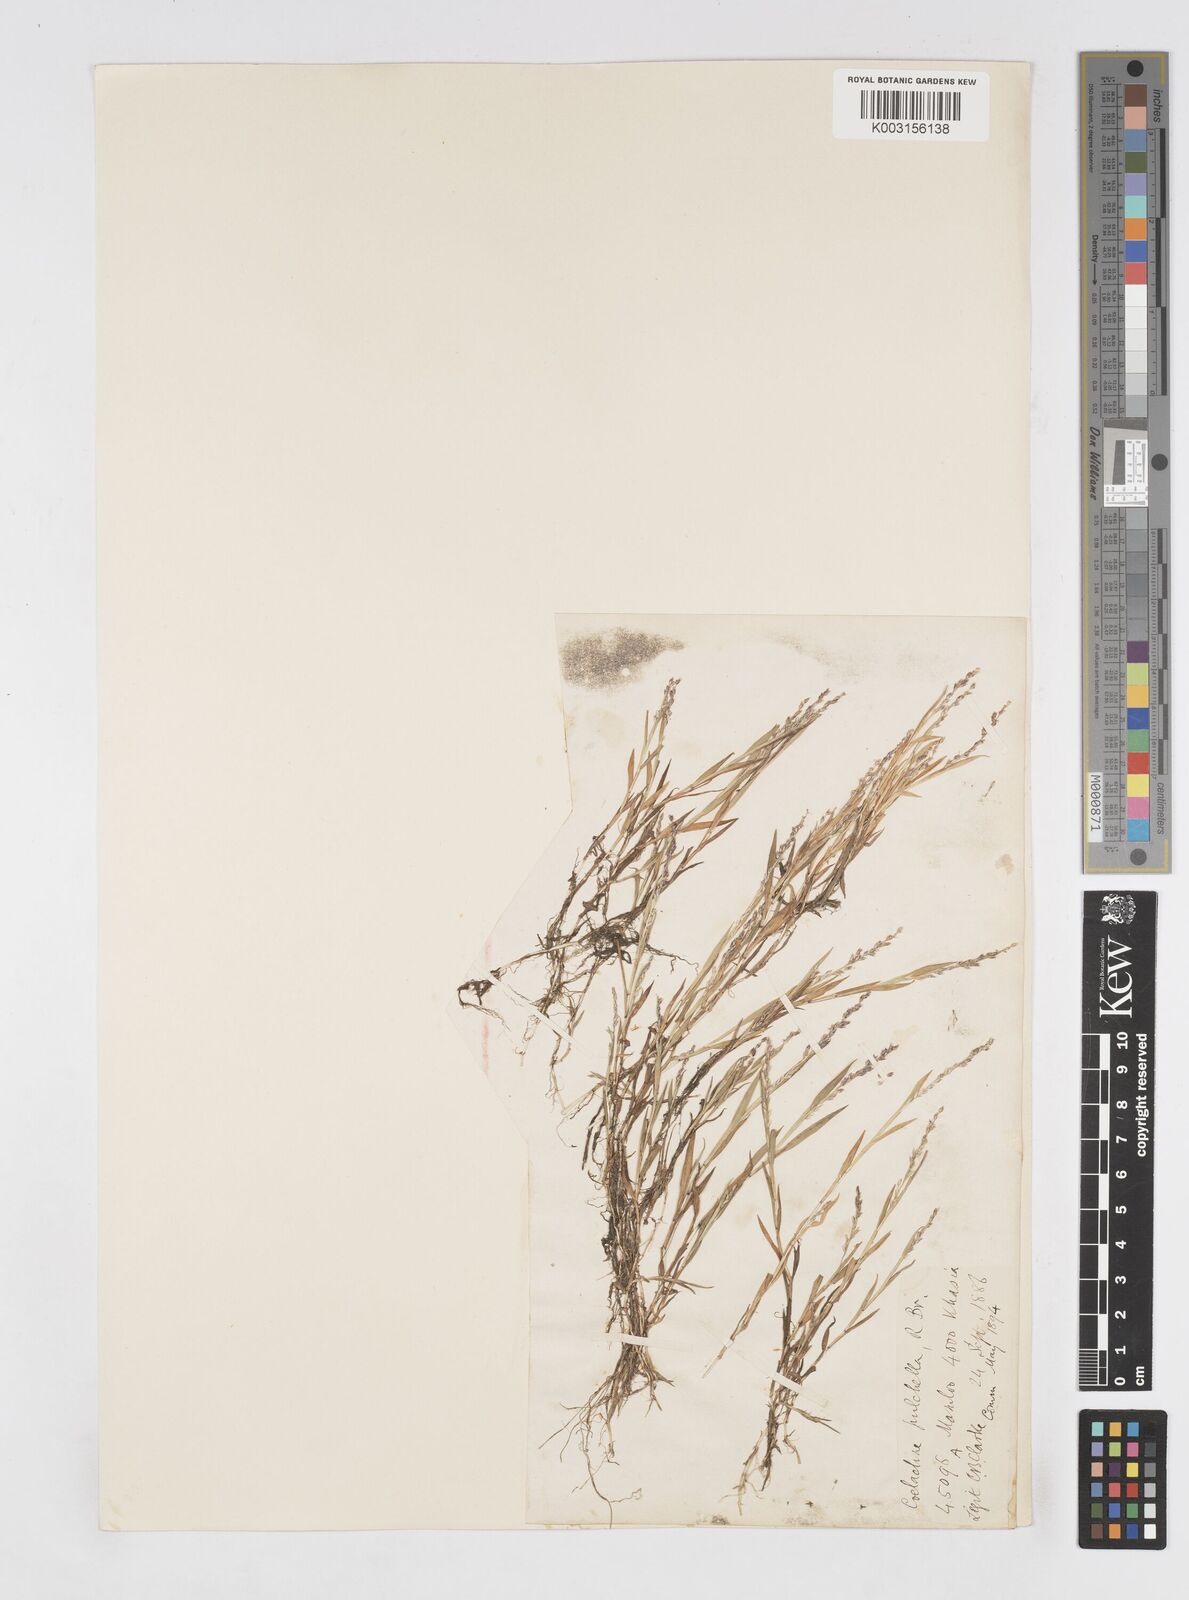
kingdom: Plantae
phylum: Tracheophyta
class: Liliopsida
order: Poales
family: Poaceae
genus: Coelachne
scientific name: Coelachne simpliciuscula
